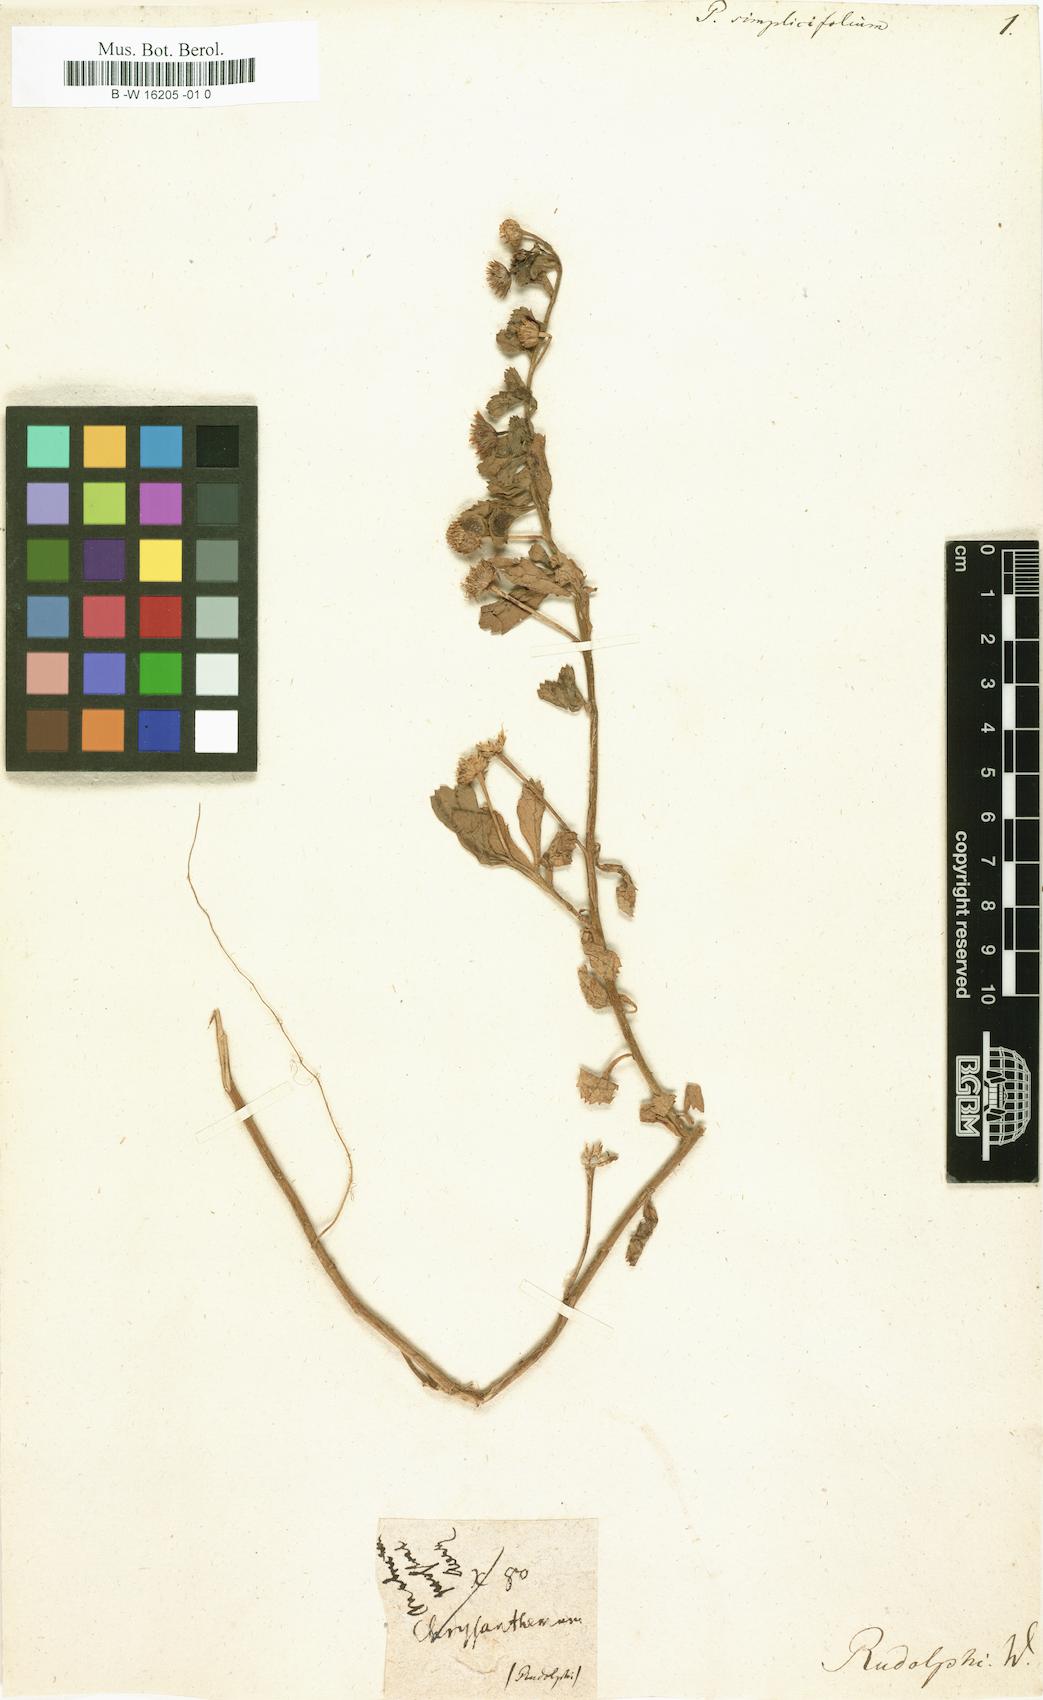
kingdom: Plantae
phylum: Tracheophyta
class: Magnoliopsida
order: Asterales
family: Asteraceae
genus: Egletes
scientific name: Egletes prostrata
